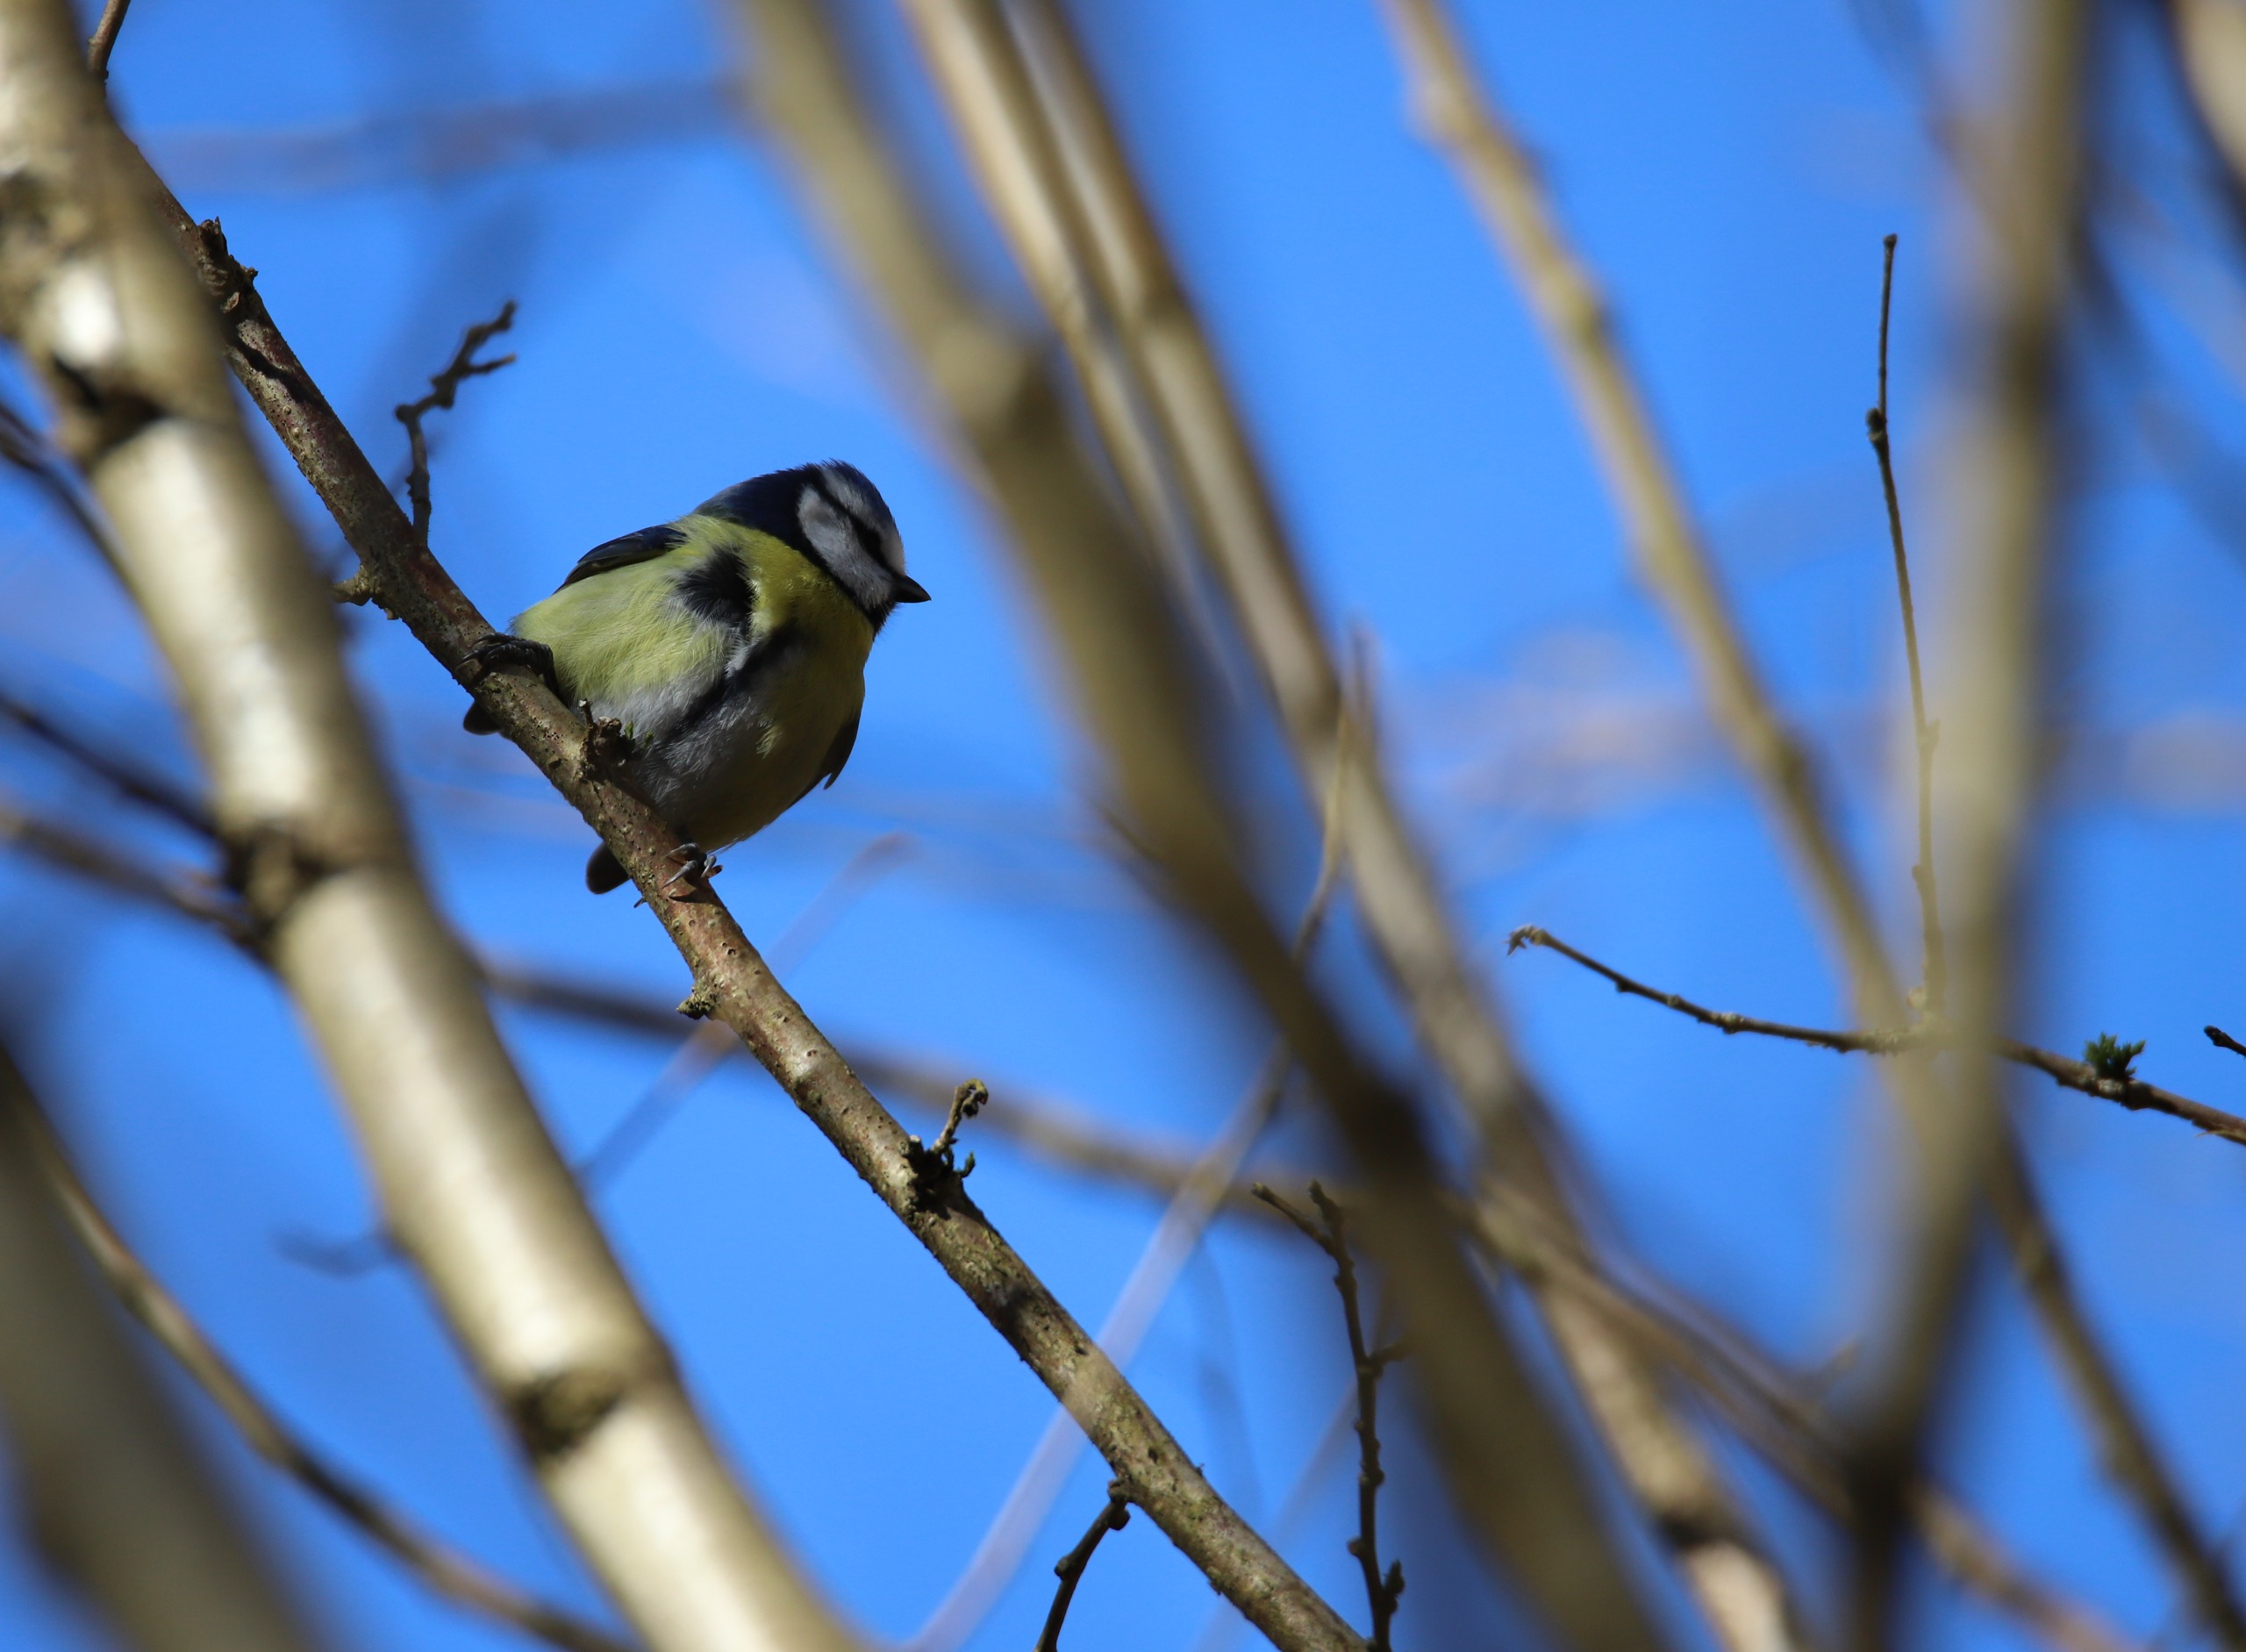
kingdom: Animalia
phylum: Chordata
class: Aves
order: Passeriformes
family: Paridae
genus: Cyanistes
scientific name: Cyanistes caeruleus
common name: Blåmejse
